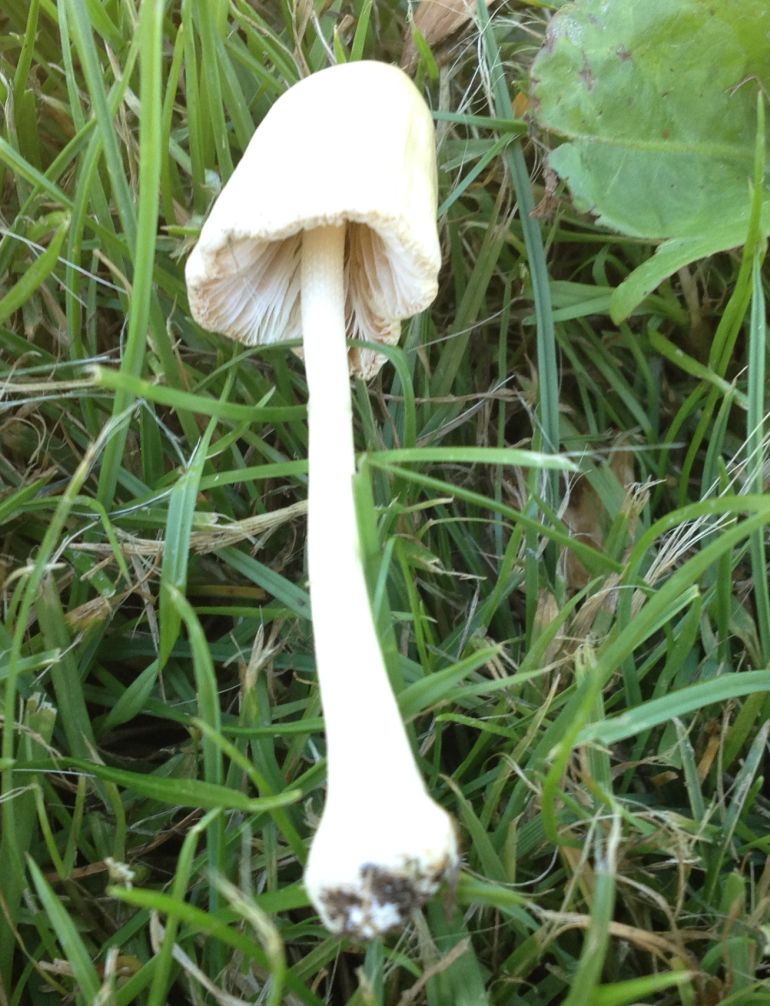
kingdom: Fungi
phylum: Basidiomycota
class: Agaricomycetes
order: Agaricales
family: Bolbitiaceae
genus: Conocybe
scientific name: Conocybe apala
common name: mælkehvid keglehat
